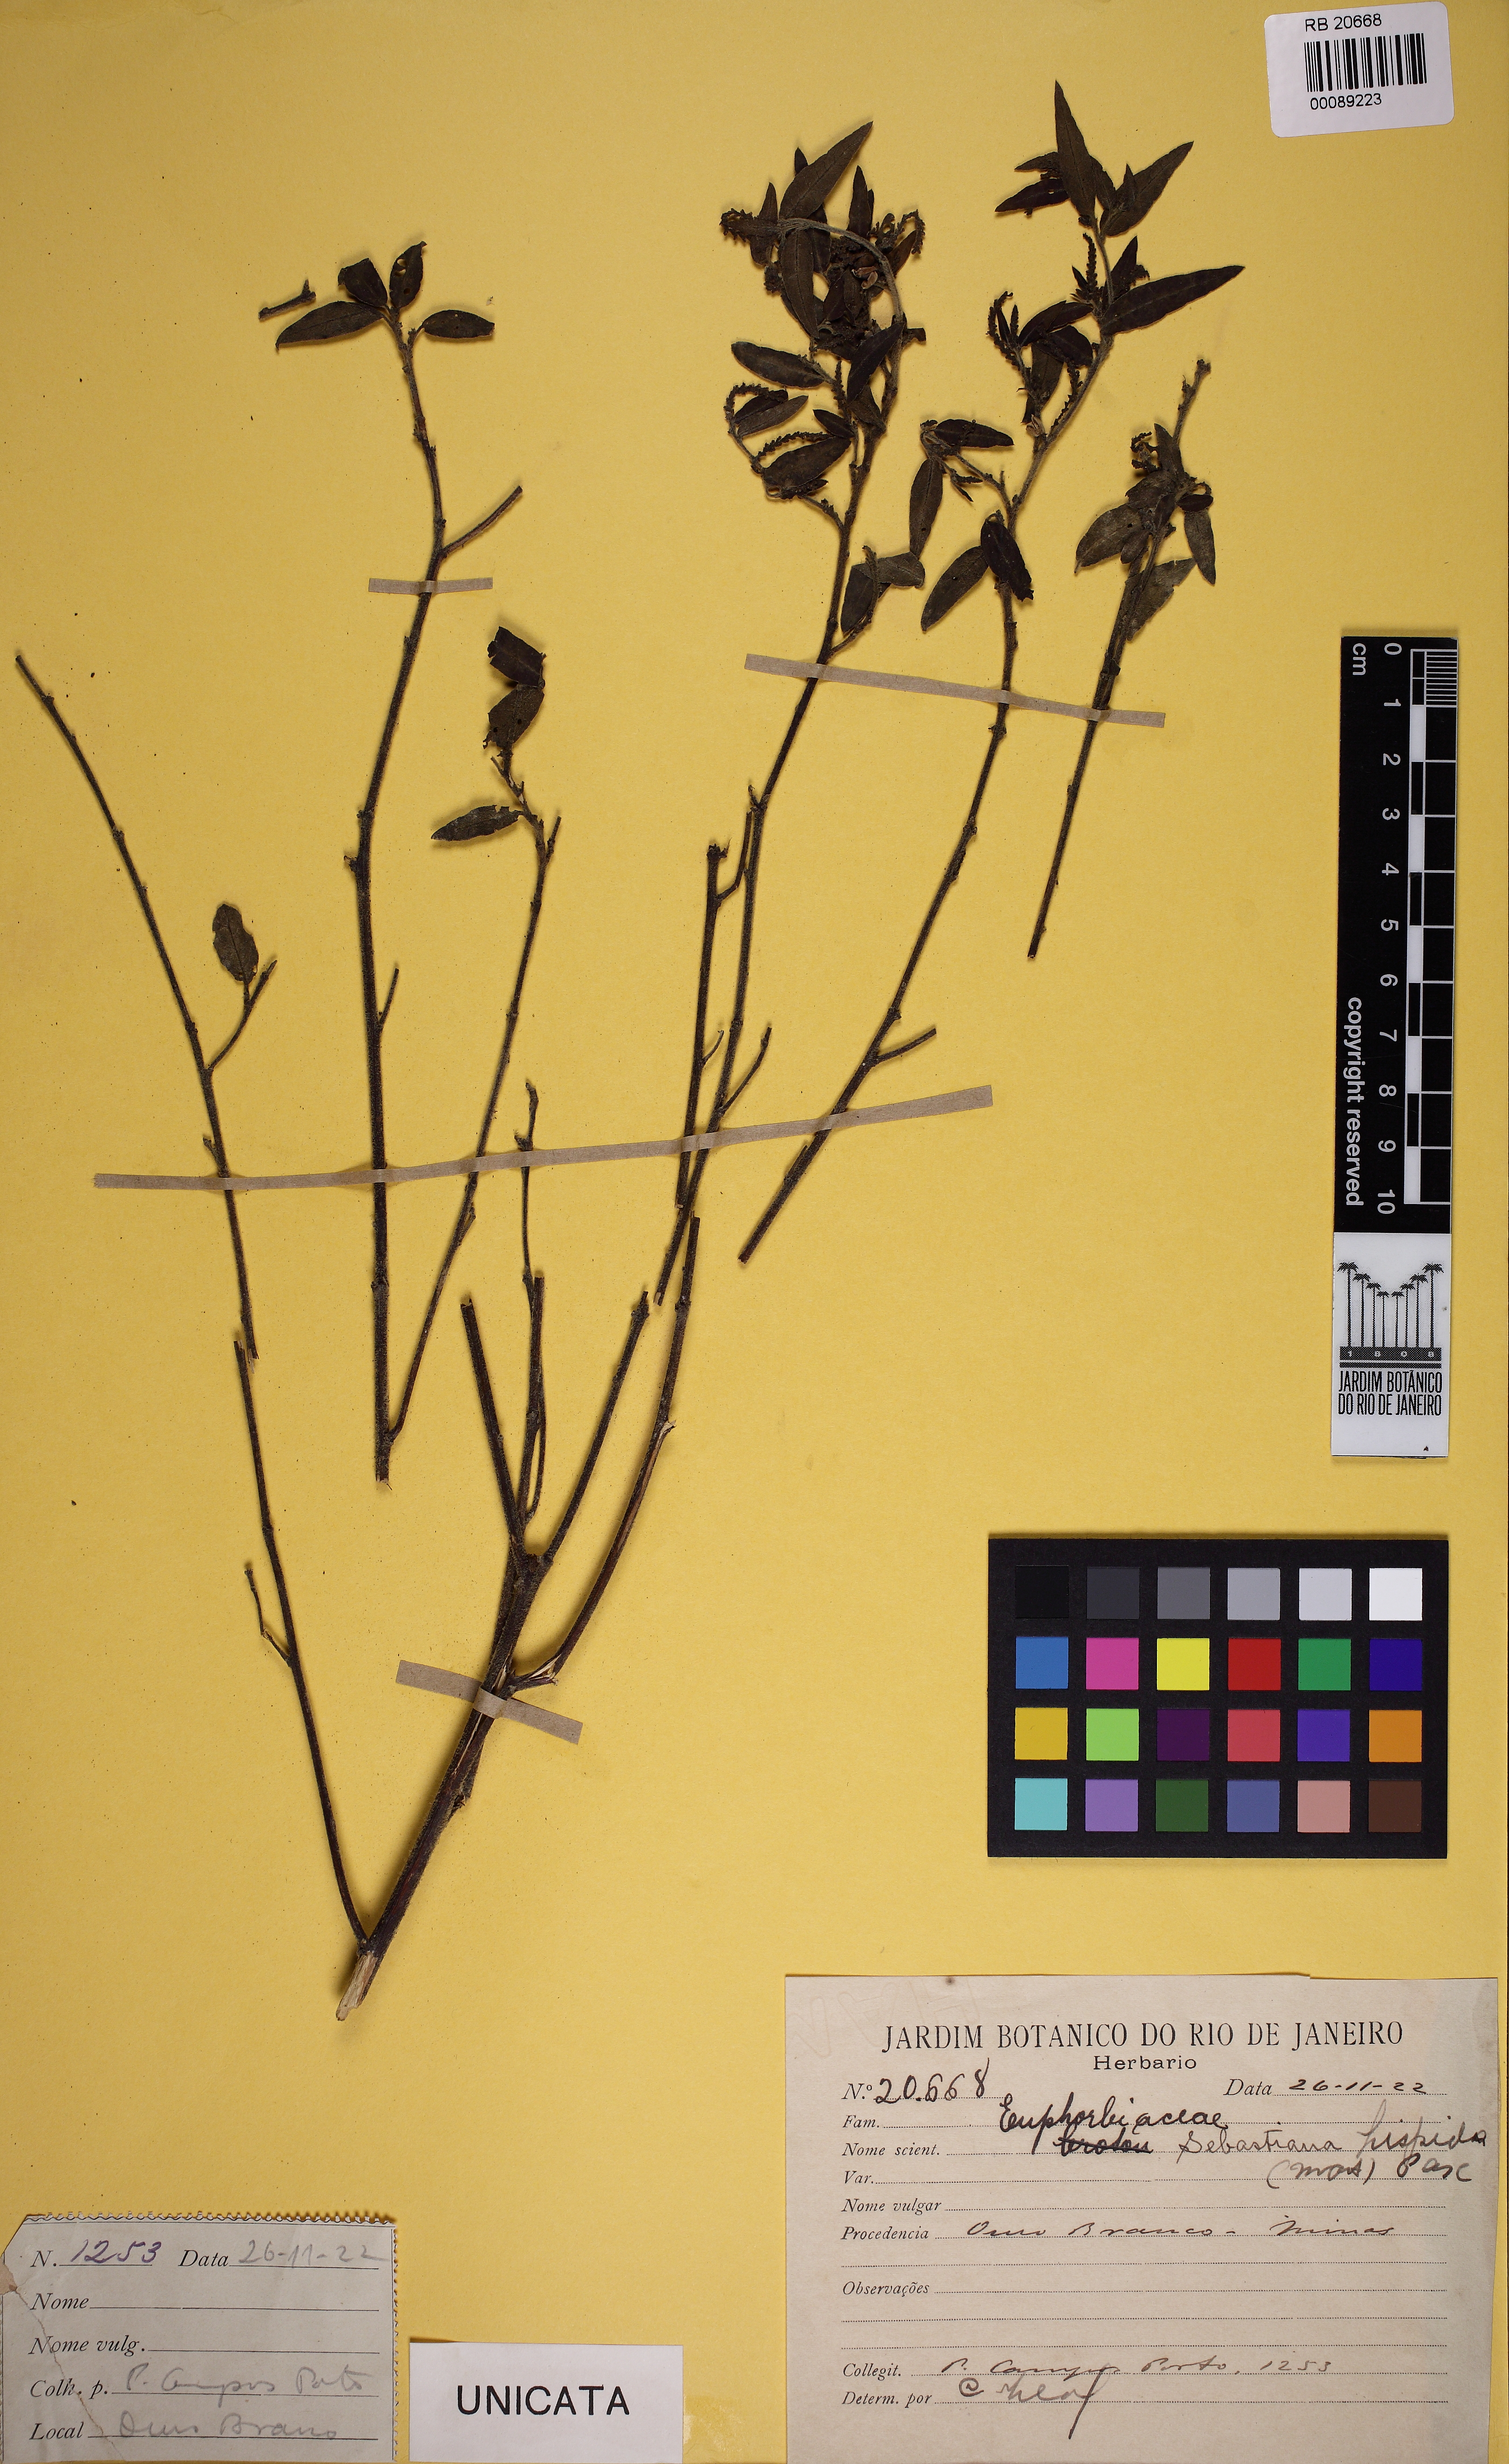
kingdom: Plantae
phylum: Tracheophyta
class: Magnoliopsida
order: Malpighiales
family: Euphorbiaceae
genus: Microstachys
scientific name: Microstachys hispida
